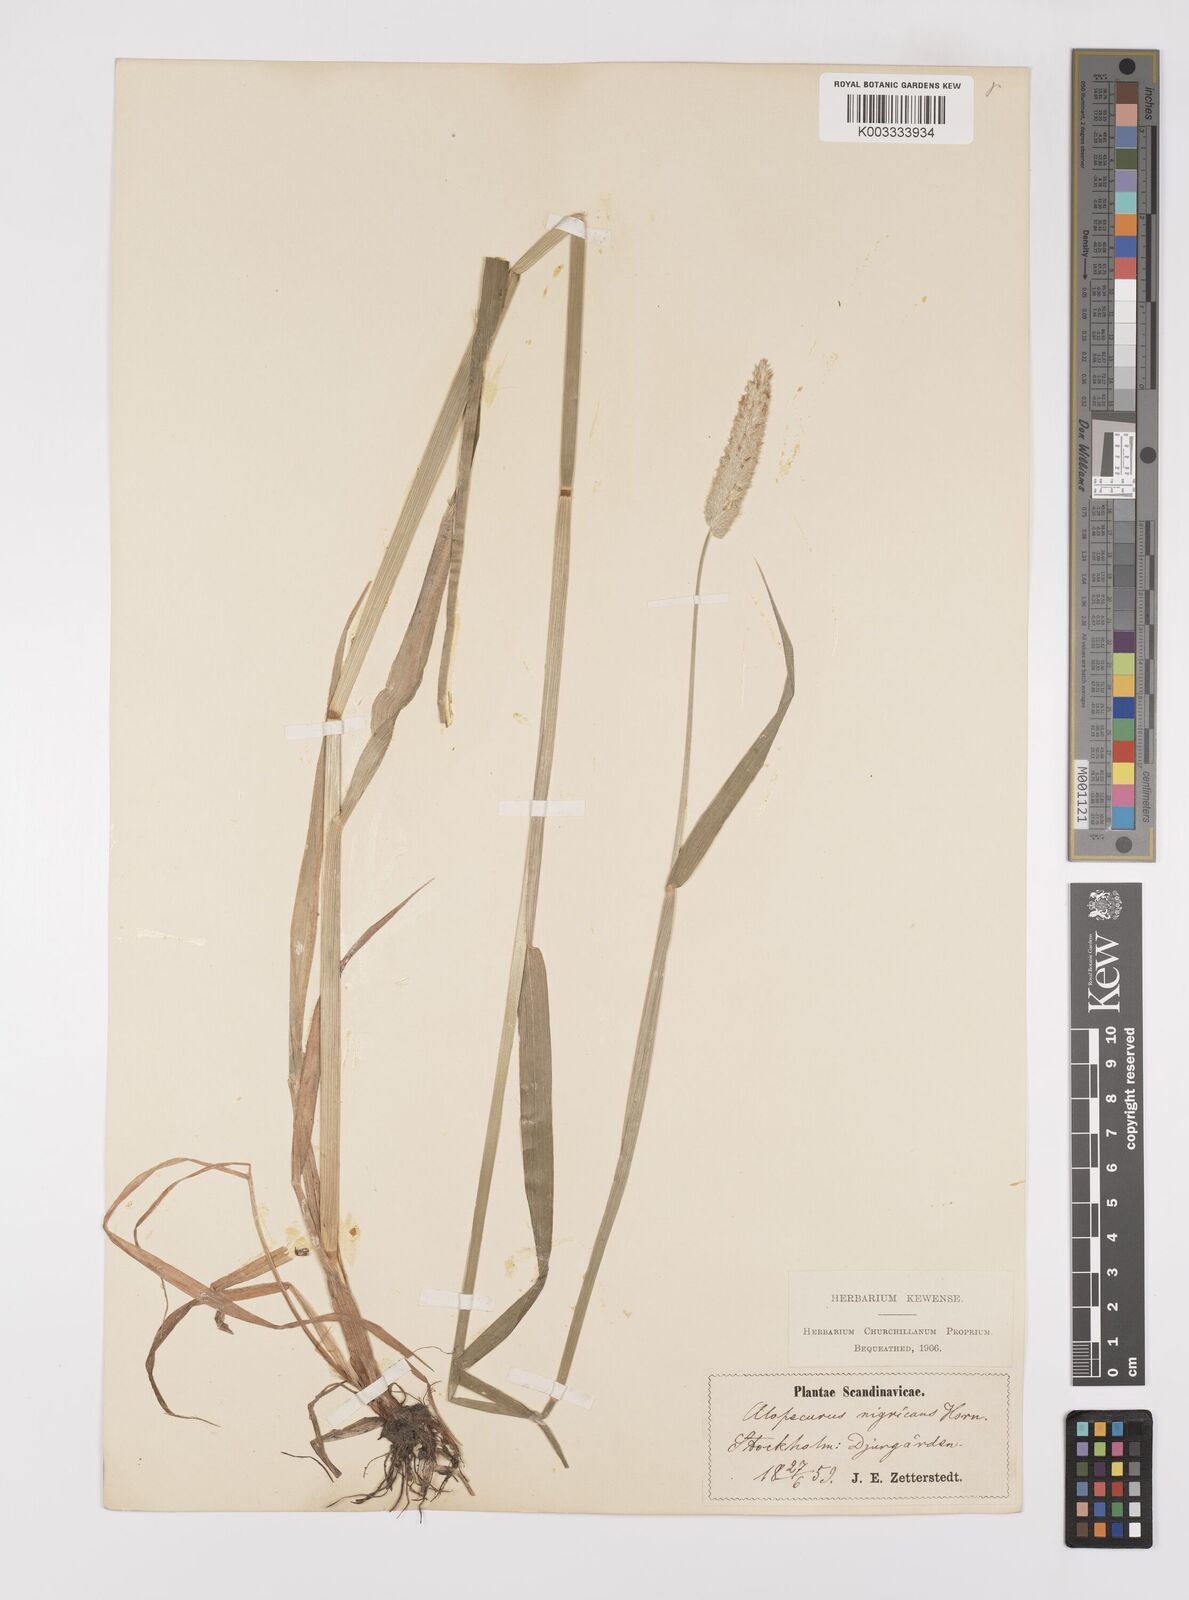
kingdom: Plantae
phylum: Tracheophyta
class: Liliopsida
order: Poales
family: Poaceae
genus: Alopecurus
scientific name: Alopecurus arundinaceus
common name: Creeping meadow foxtail
